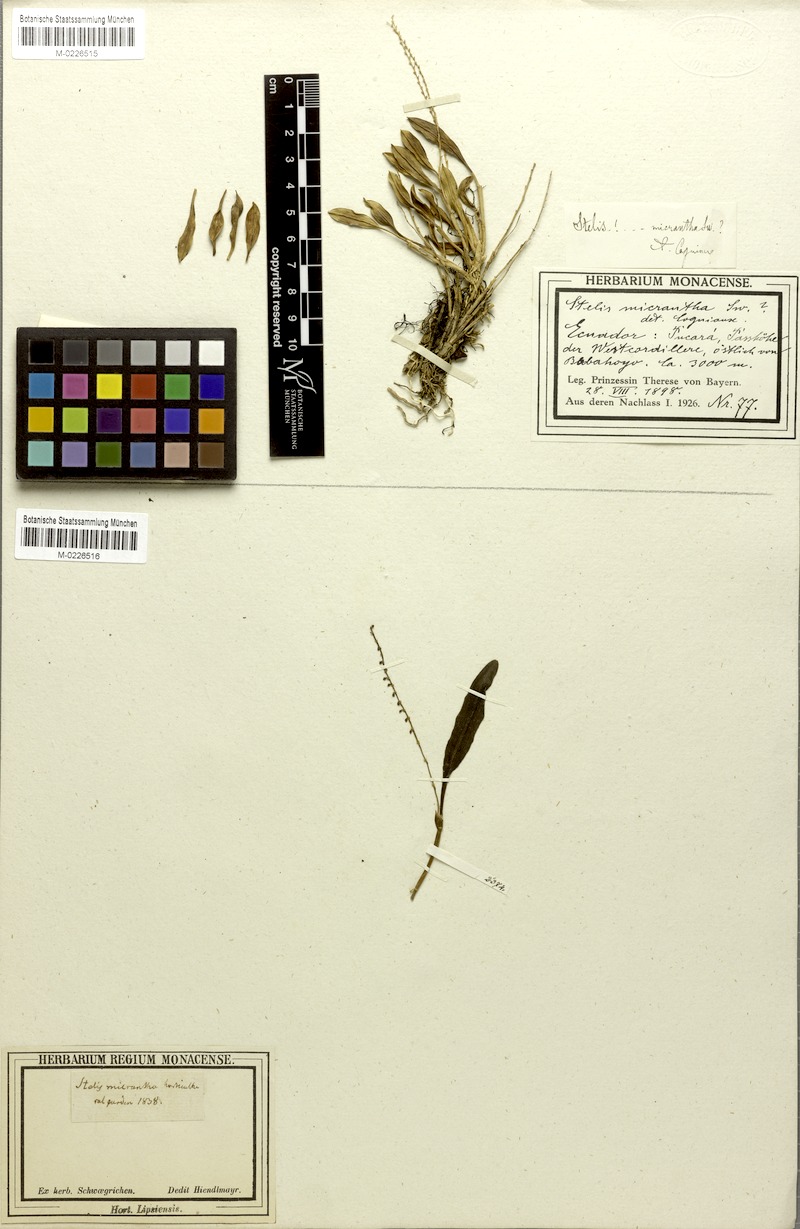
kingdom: Plantae
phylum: Tracheophyta
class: Liliopsida
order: Asparagales
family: Orchidaceae
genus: Stelis
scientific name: Stelis micrantha
